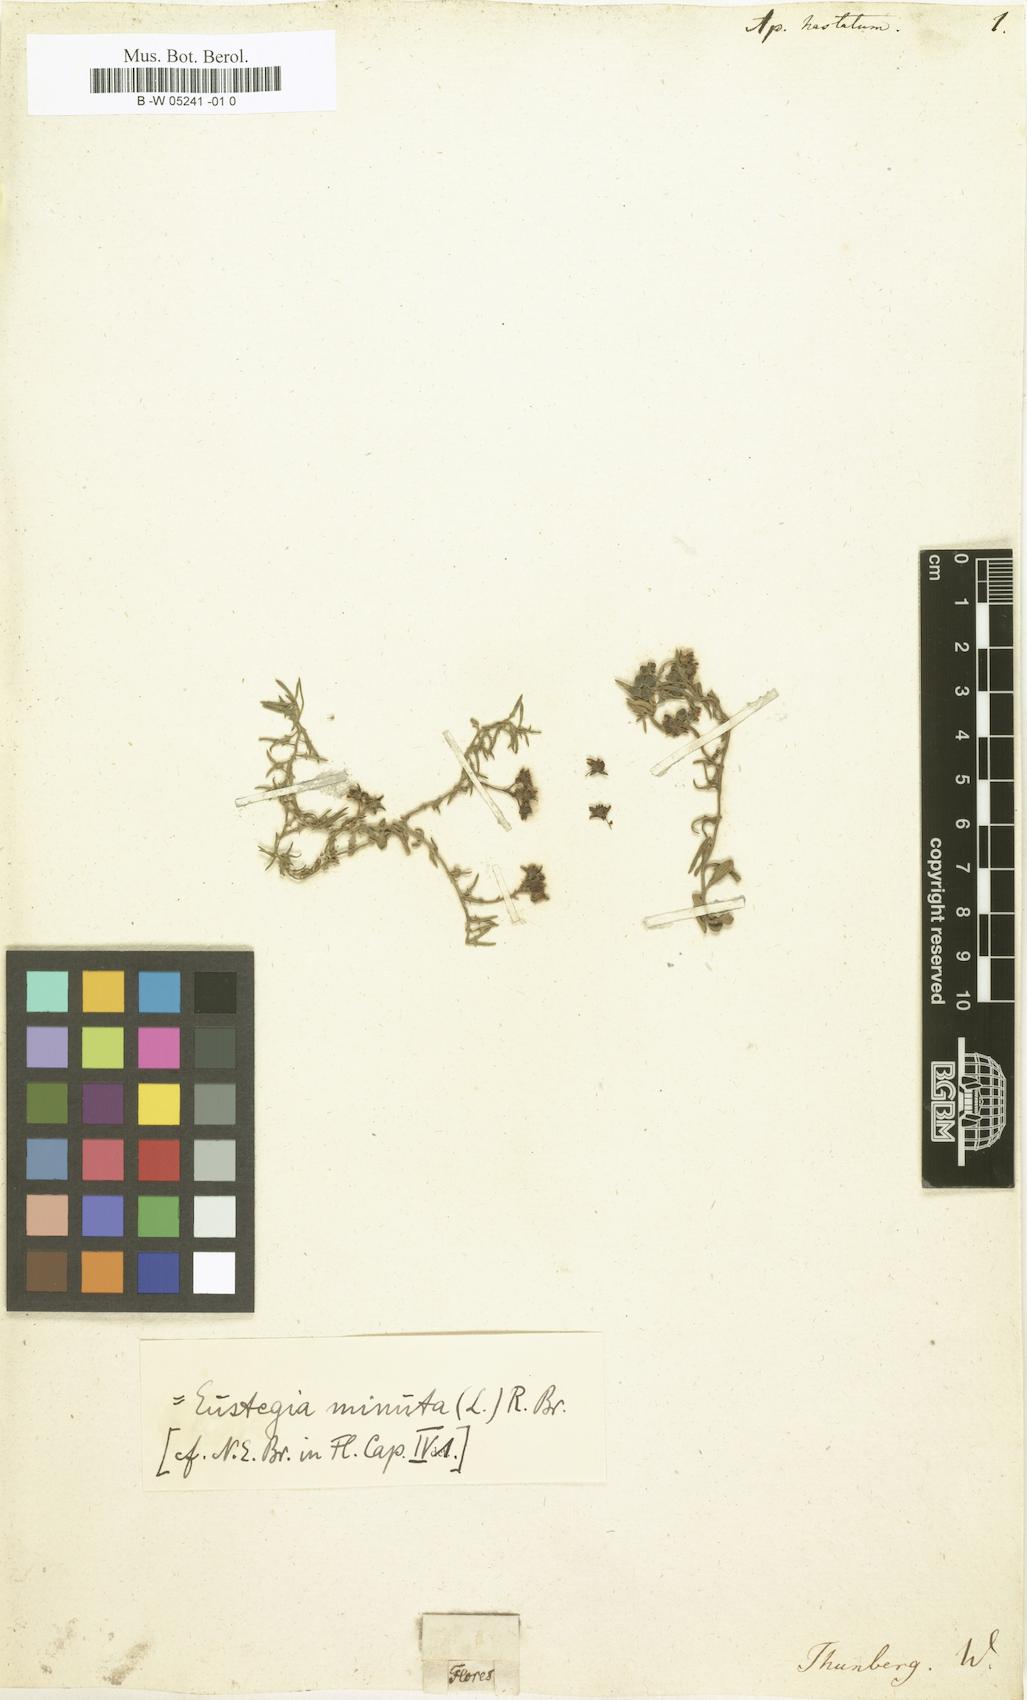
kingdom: Plantae
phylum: Tracheophyta
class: Magnoliopsida
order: Gentianales
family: Apocynaceae
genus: Eustegia
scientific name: Eustegia minuta
